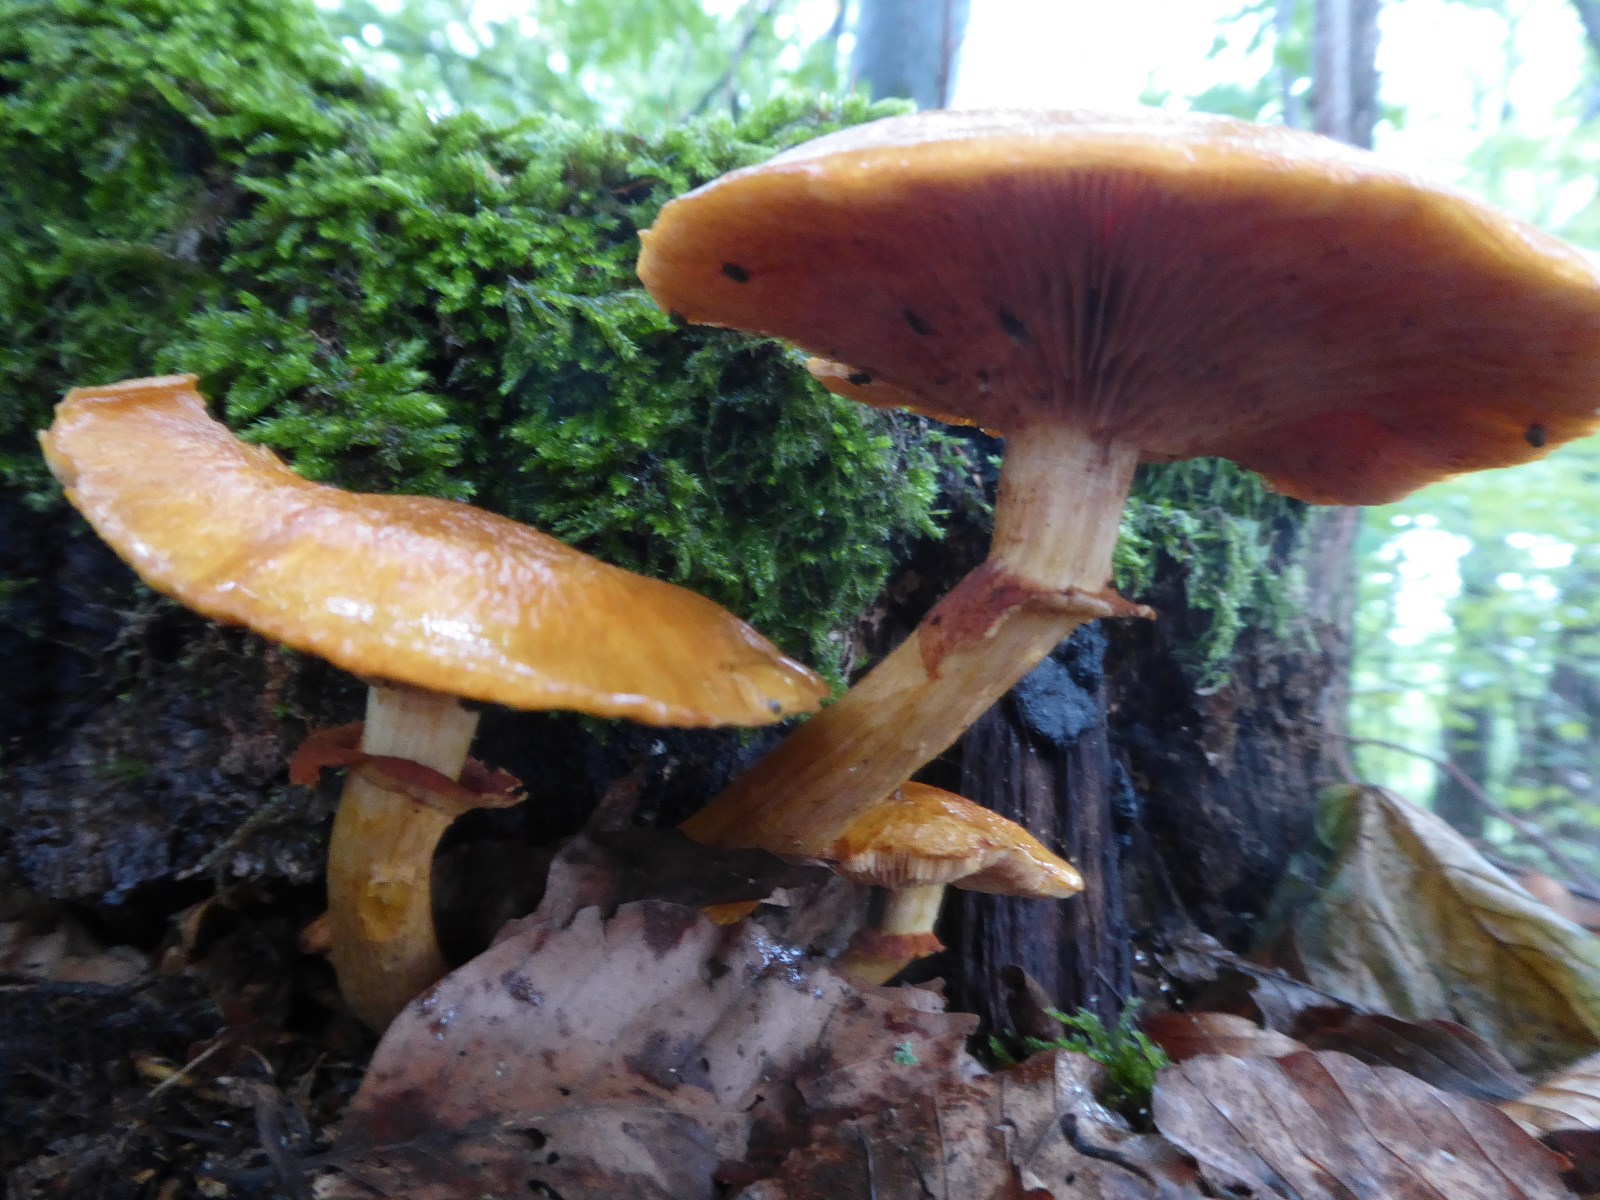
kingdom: Fungi
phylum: Basidiomycota
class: Agaricomycetes
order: Agaricales
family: Hymenogastraceae
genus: Gymnopilus
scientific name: Gymnopilus spectabilis
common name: fibret flammehat
